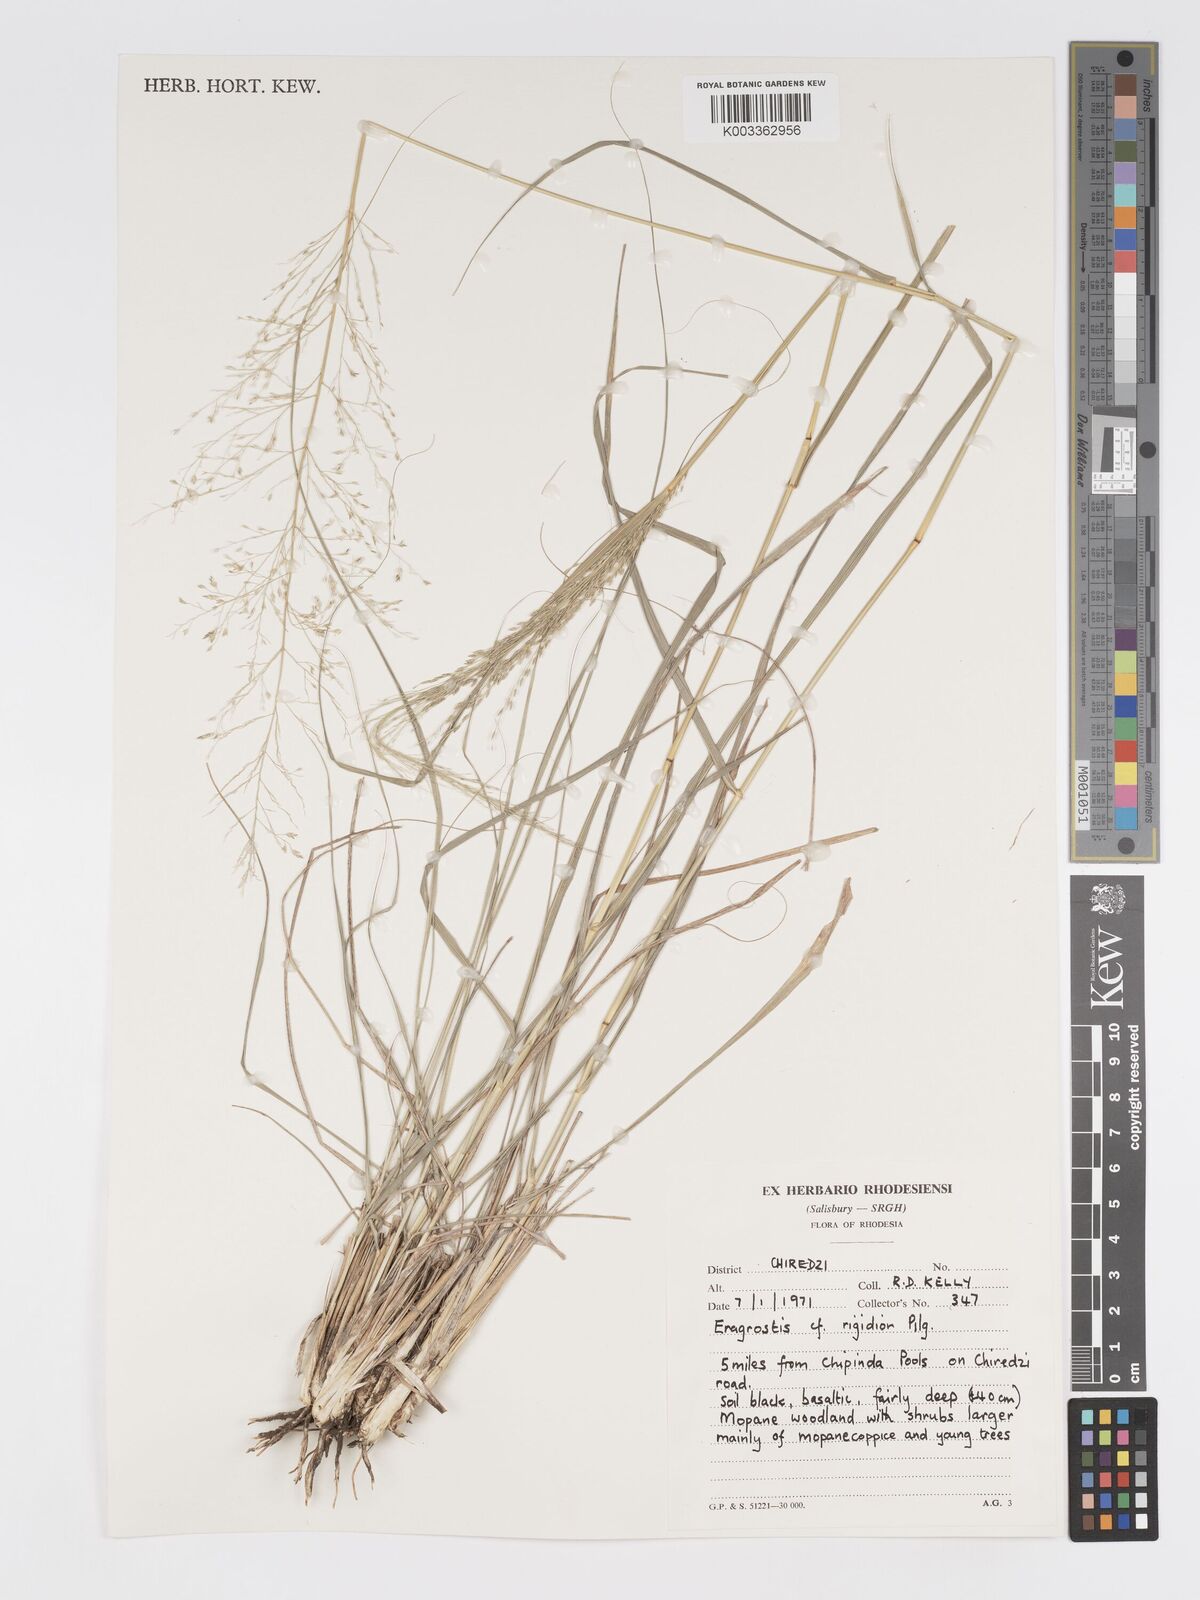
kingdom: Plantae
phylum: Tracheophyta
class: Liliopsida
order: Poales
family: Poaceae
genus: Eragrostis
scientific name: Eragrostis cylindriflora
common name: Cylinderflower lovegrass
